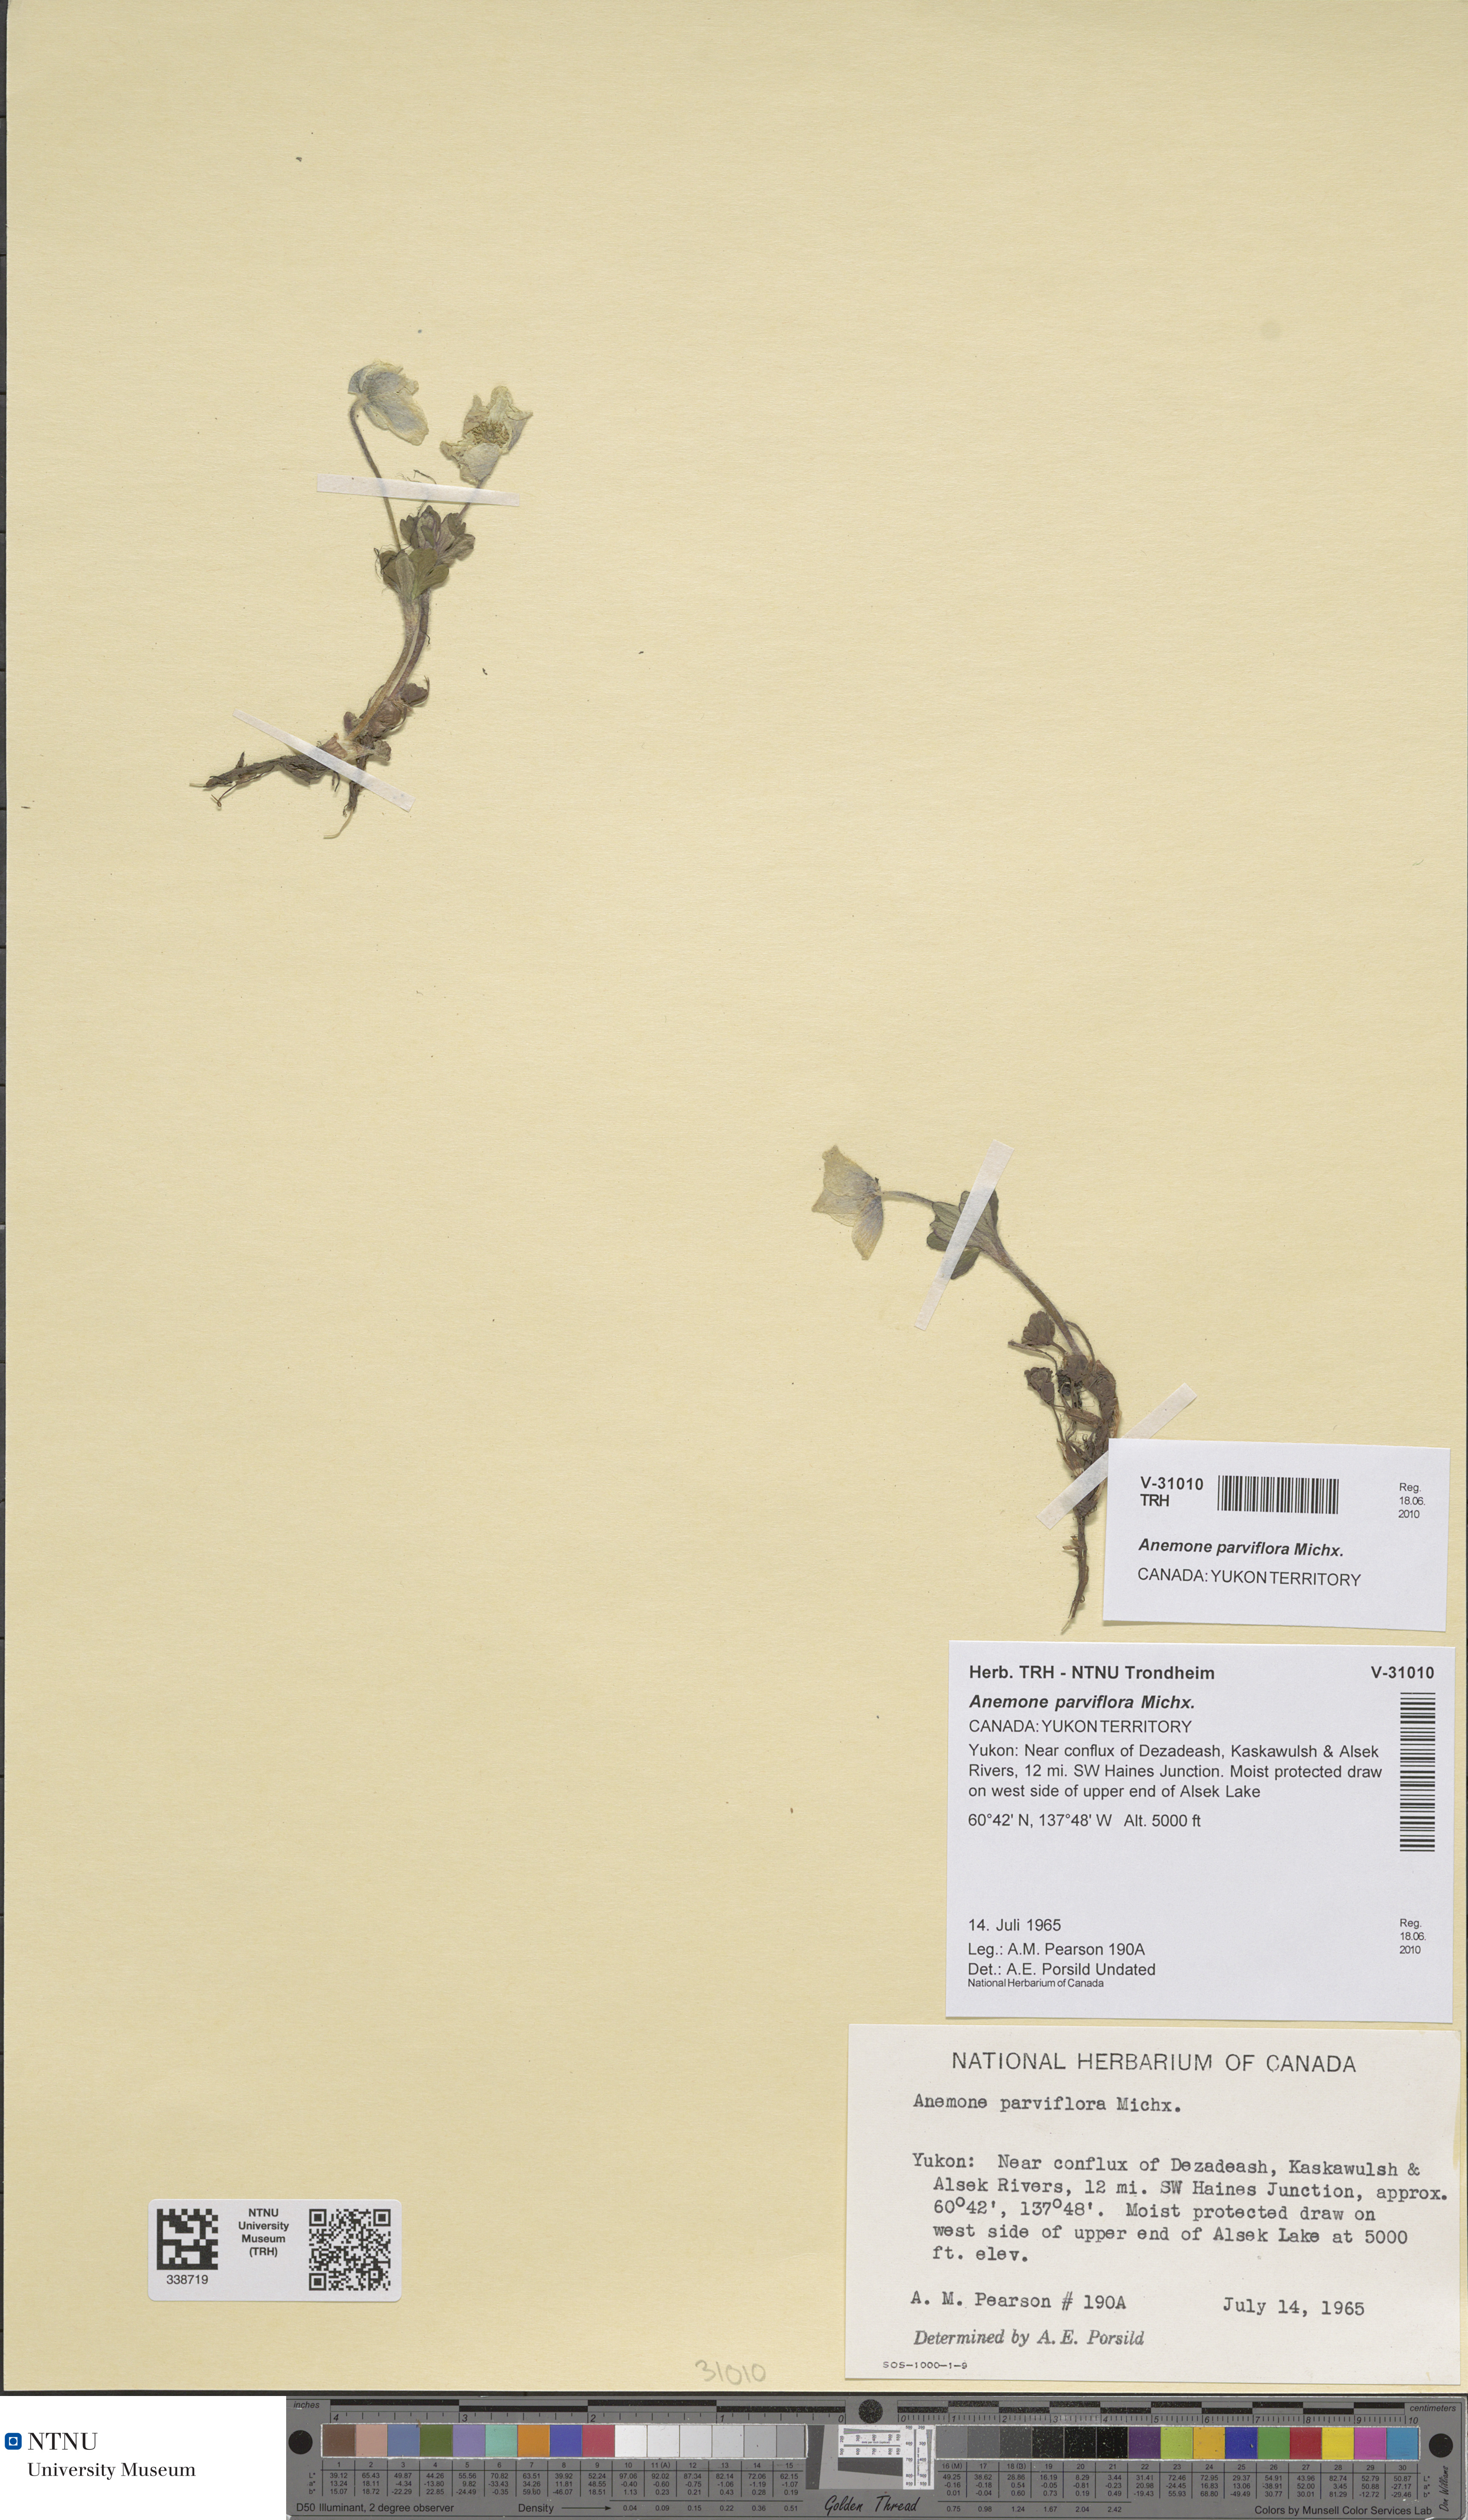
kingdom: Plantae
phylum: Tracheophyta
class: Magnoliopsida
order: Ranunculales
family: Ranunculaceae
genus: Anemone
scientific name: Anemone parviflora
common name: Northern anemone
